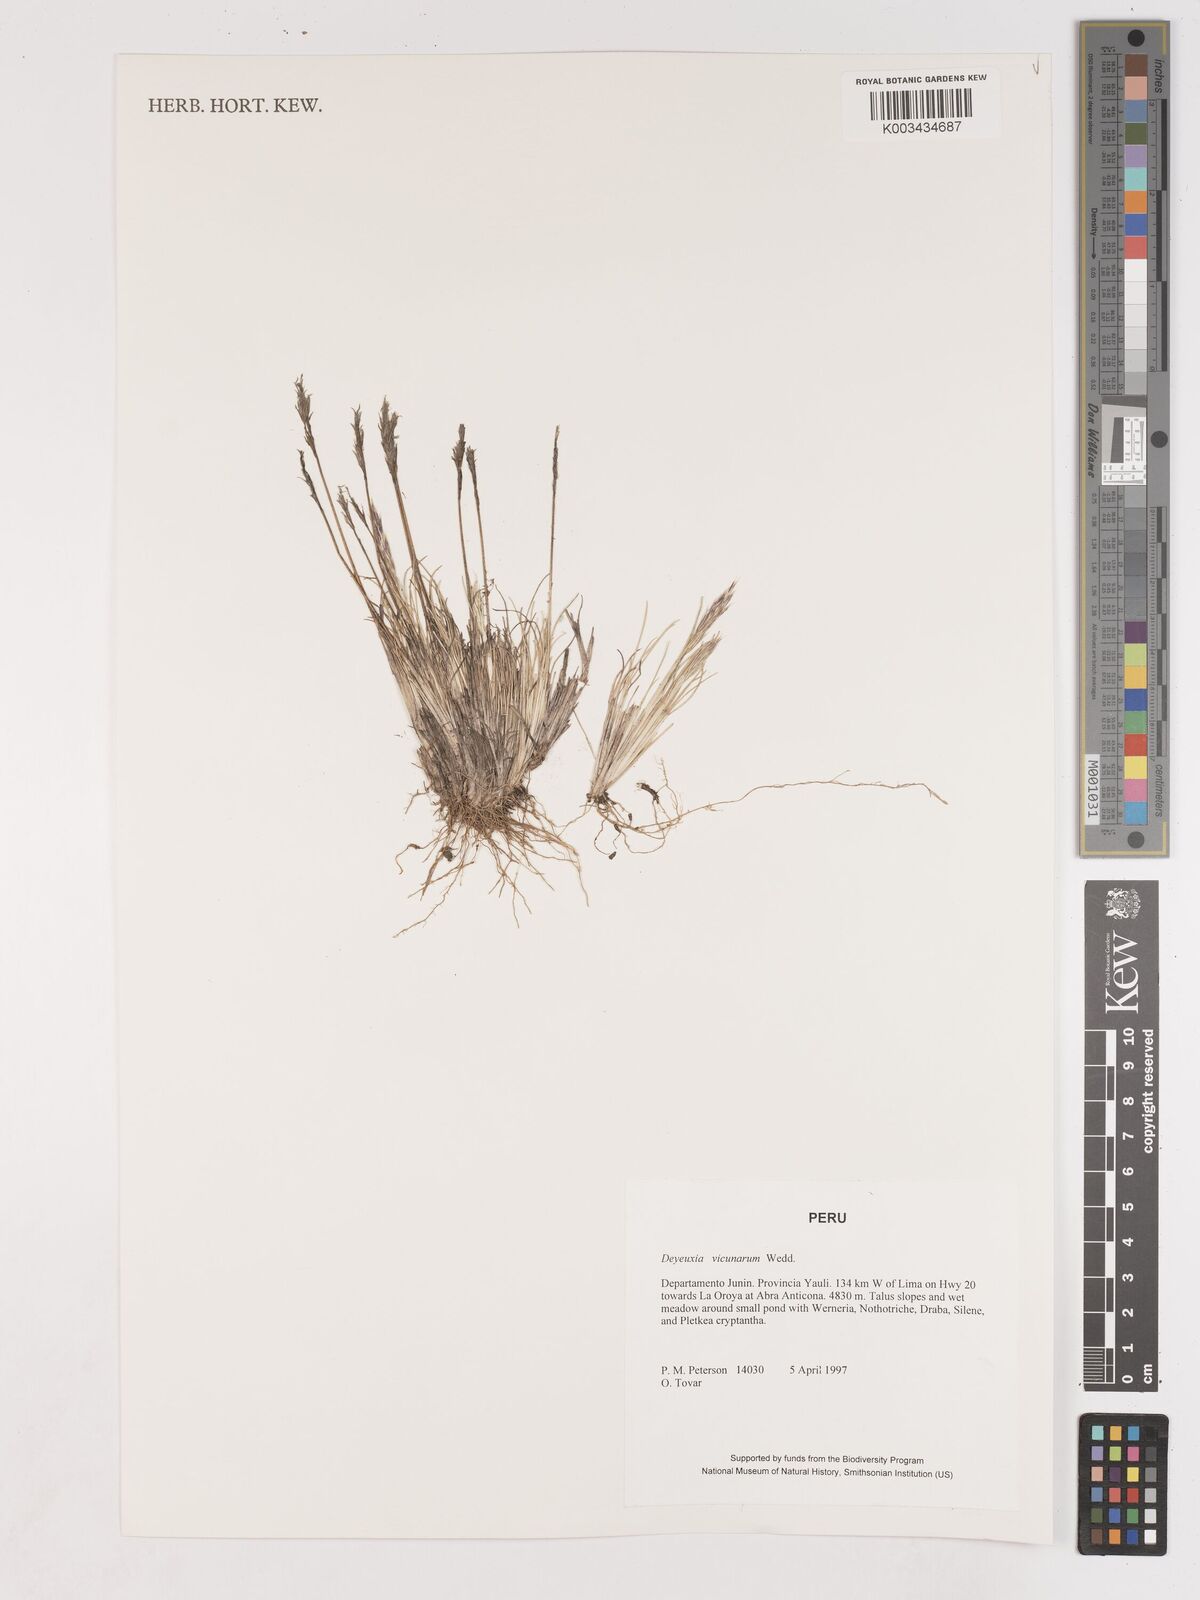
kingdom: Plantae
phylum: Tracheophyta
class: Liliopsida
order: Poales
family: Poaceae
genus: Cinnagrostis
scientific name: Cinnagrostis vicunarum
